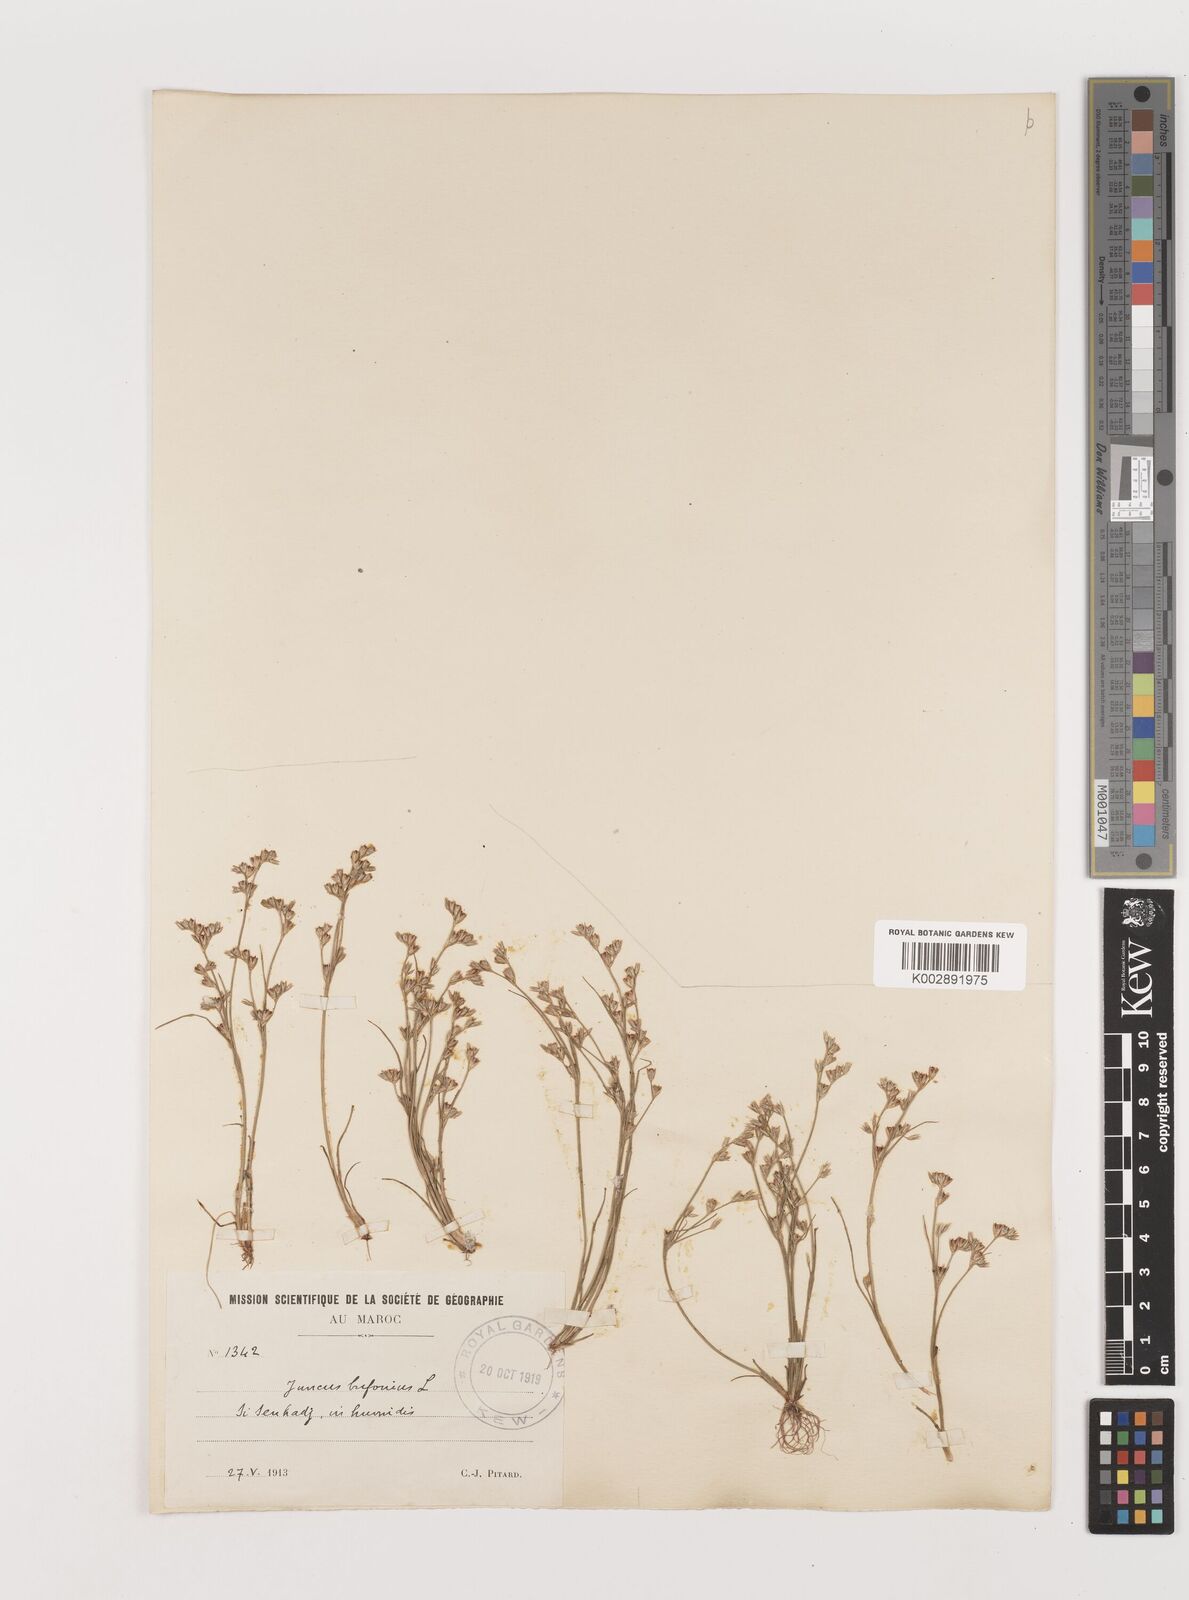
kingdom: Plantae
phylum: Tracheophyta
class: Liliopsida
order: Poales
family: Juncaceae
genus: Juncus
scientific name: Juncus bufonius
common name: Toad rush
